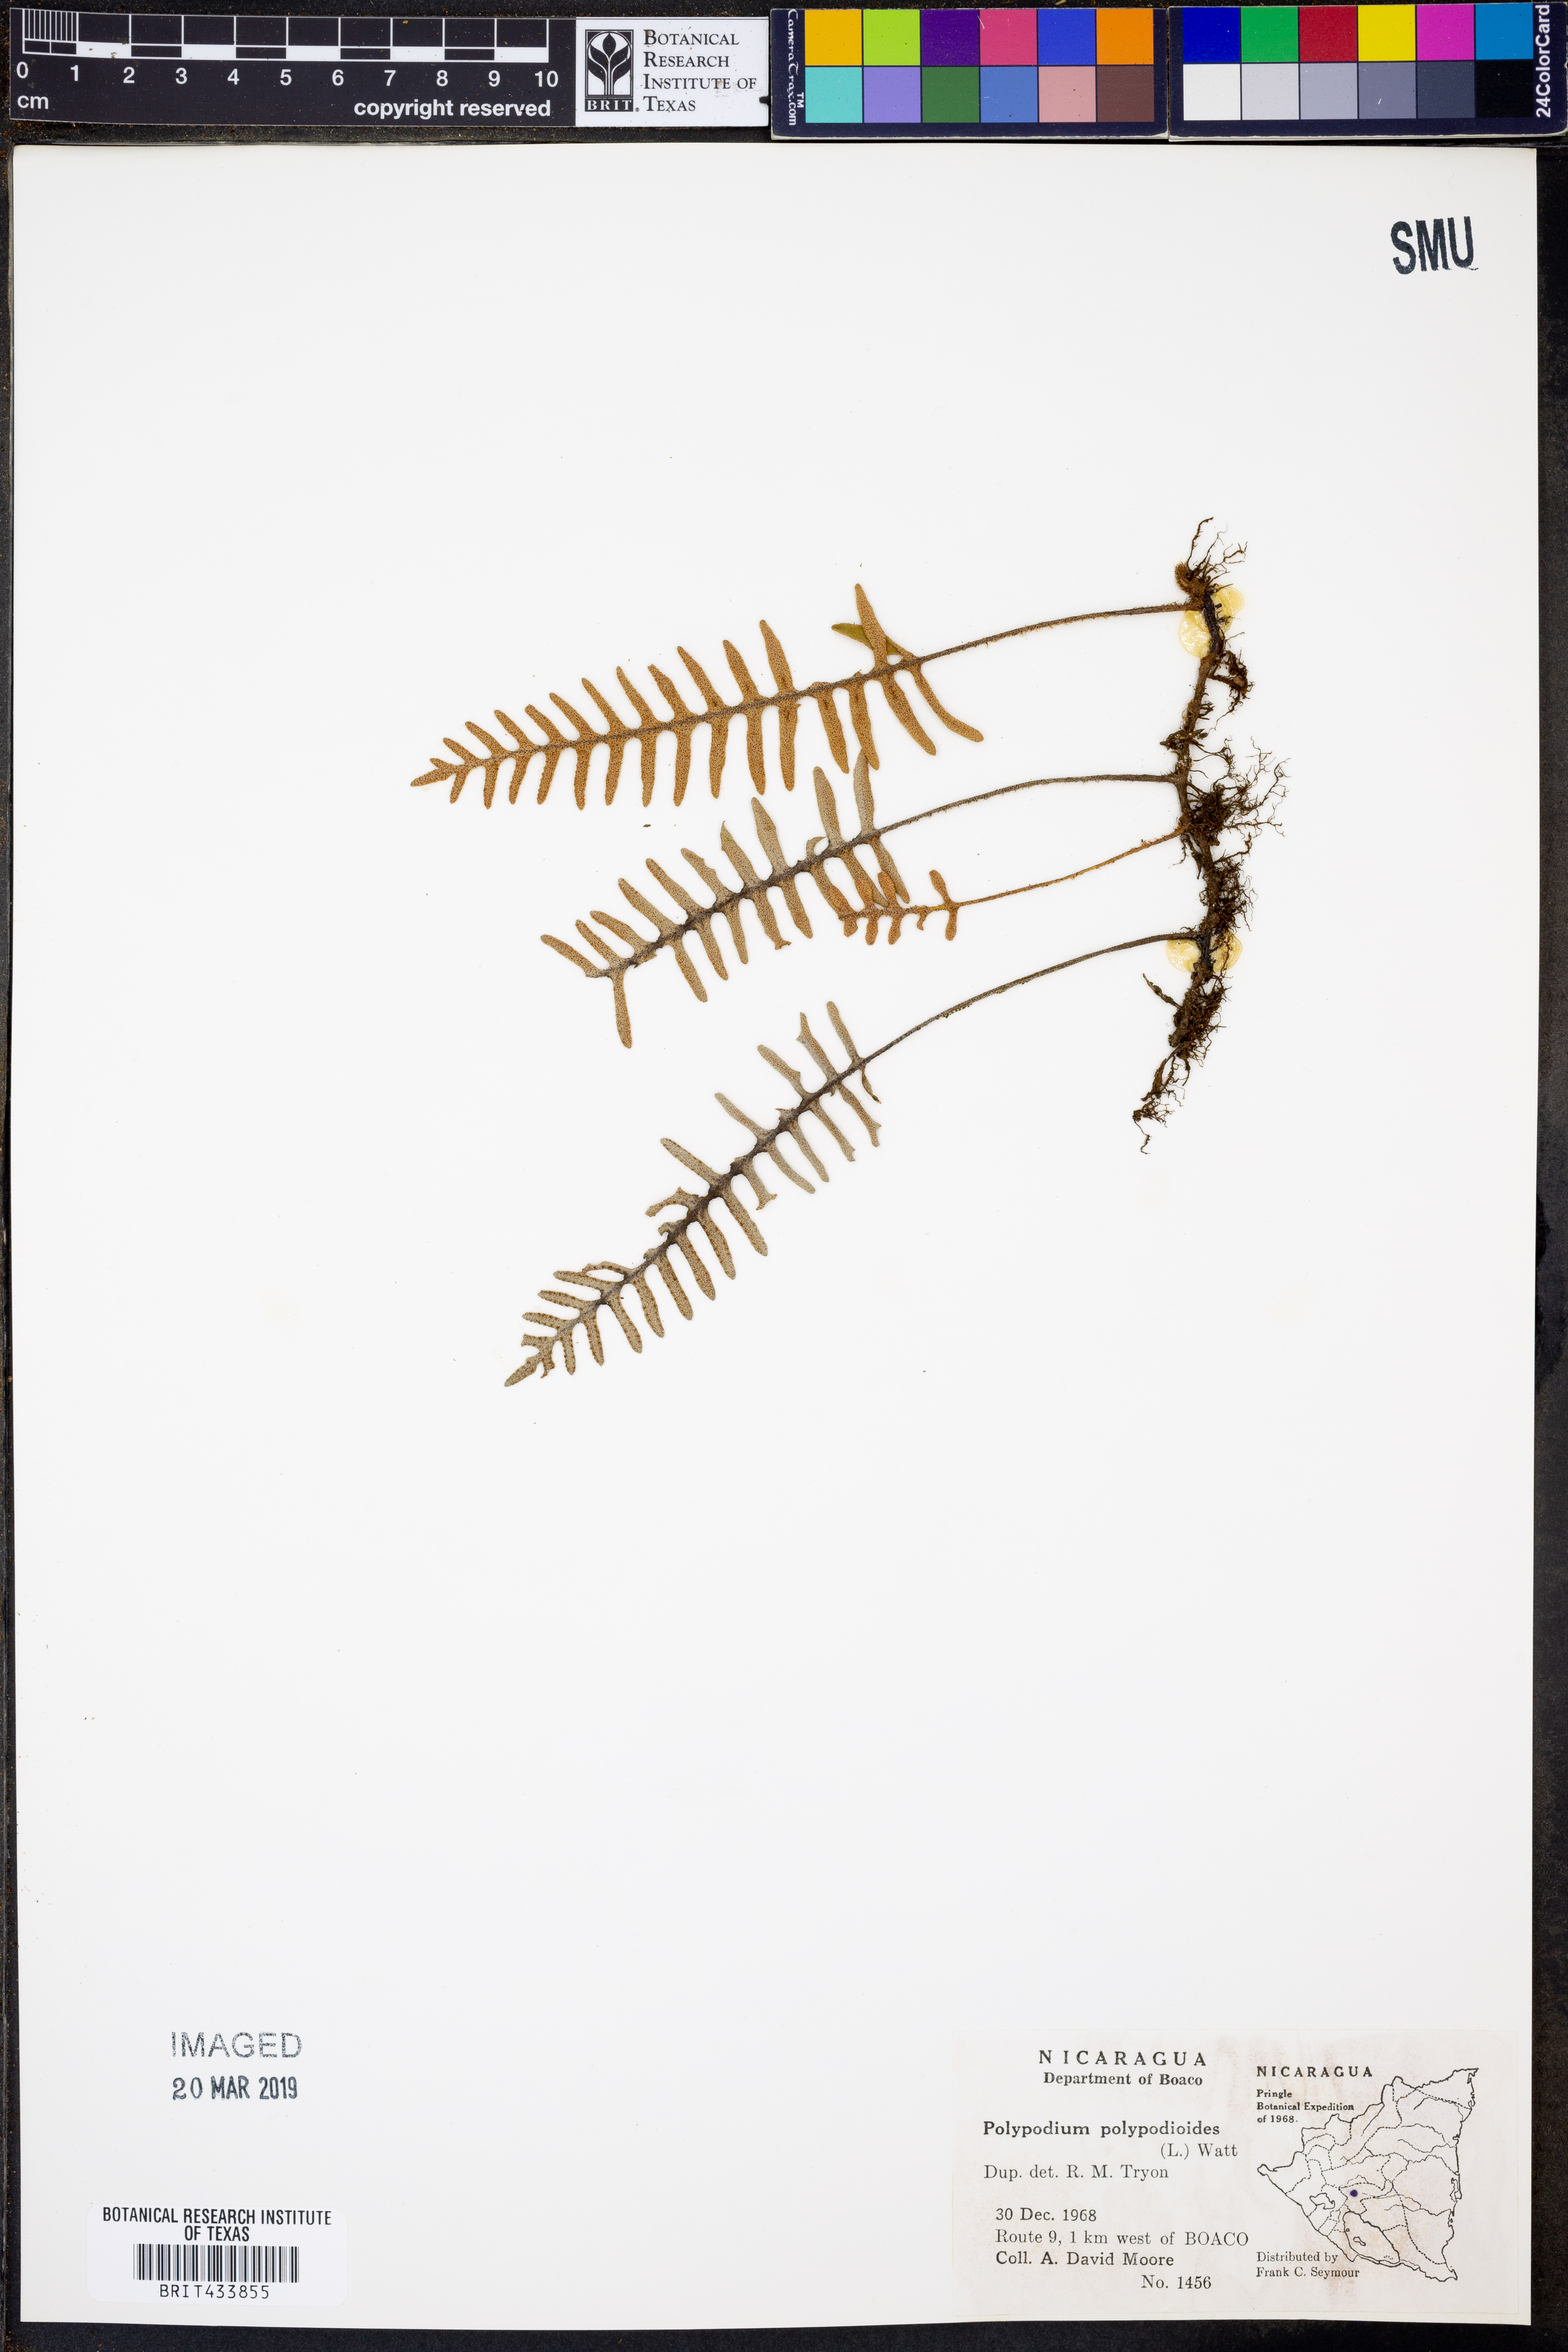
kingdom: Plantae
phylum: Tracheophyta
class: Polypodiopsida
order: Polypodiales
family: Polypodiaceae
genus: Pleopeltis
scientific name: Pleopeltis polypodioides
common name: Resurrection fern
